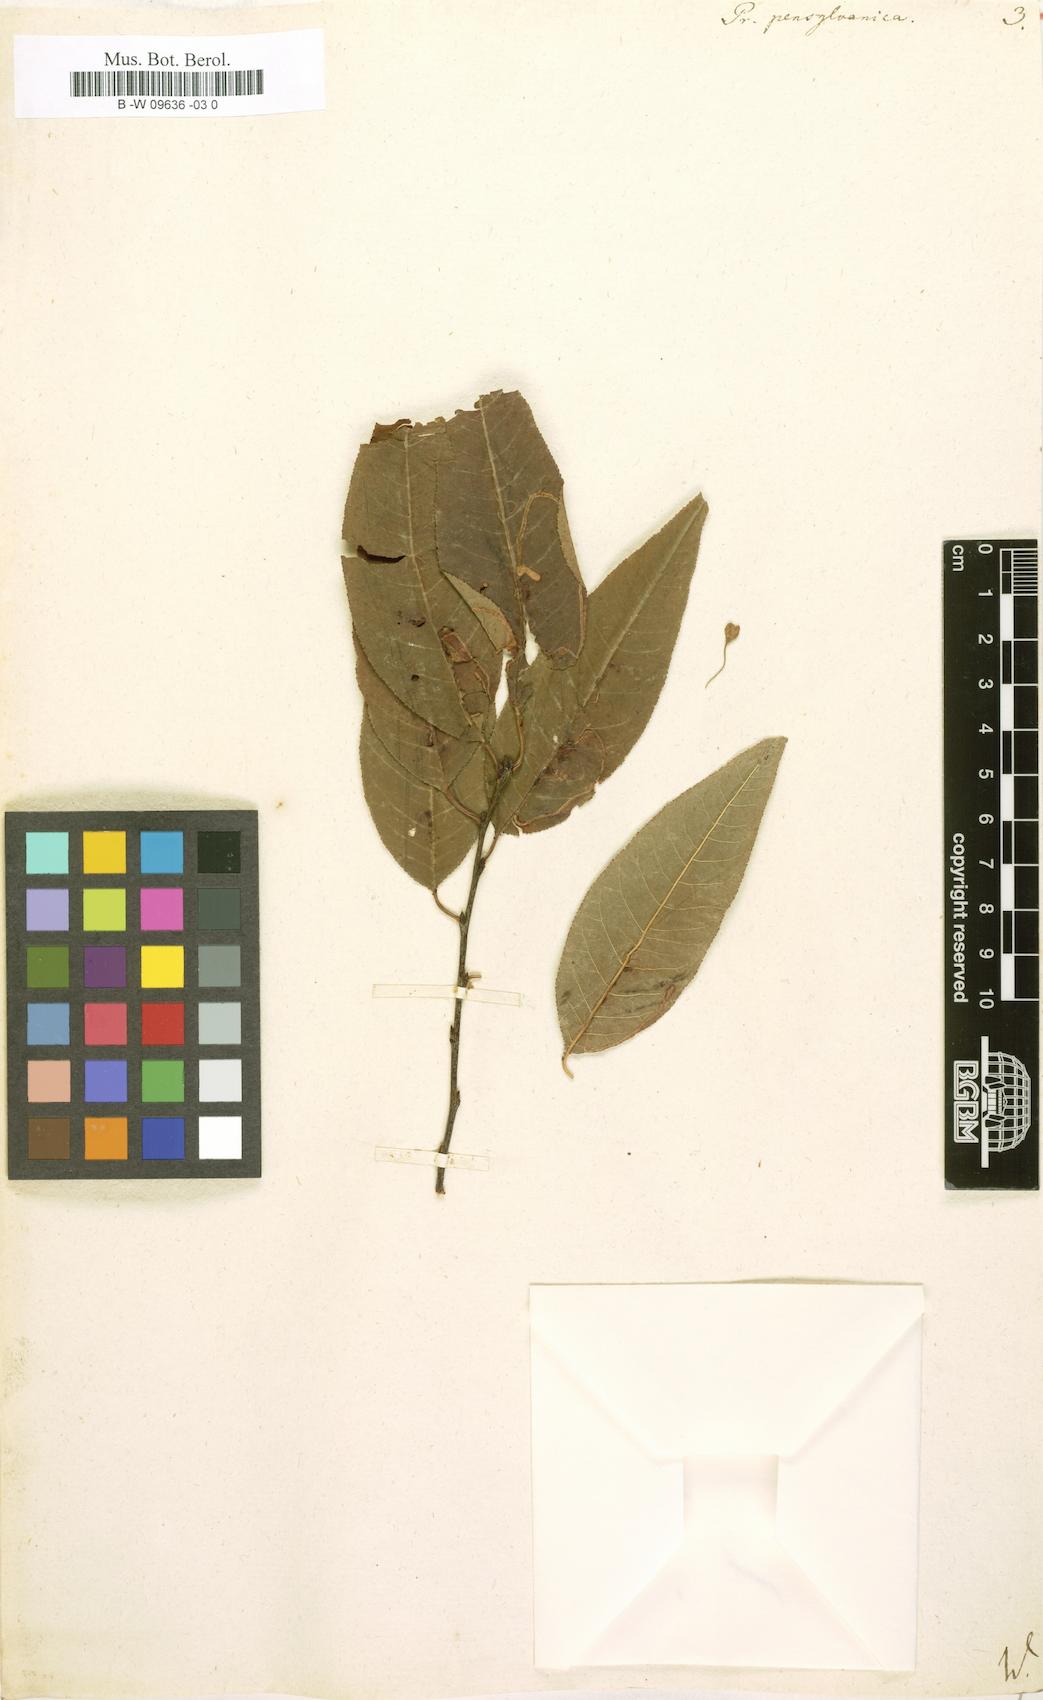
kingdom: Plantae
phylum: Tracheophyta
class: Magnoliopsida
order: Rosales
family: Rosaceae
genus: Prunus
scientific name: Prunus pensylvanica
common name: Pin cherry
